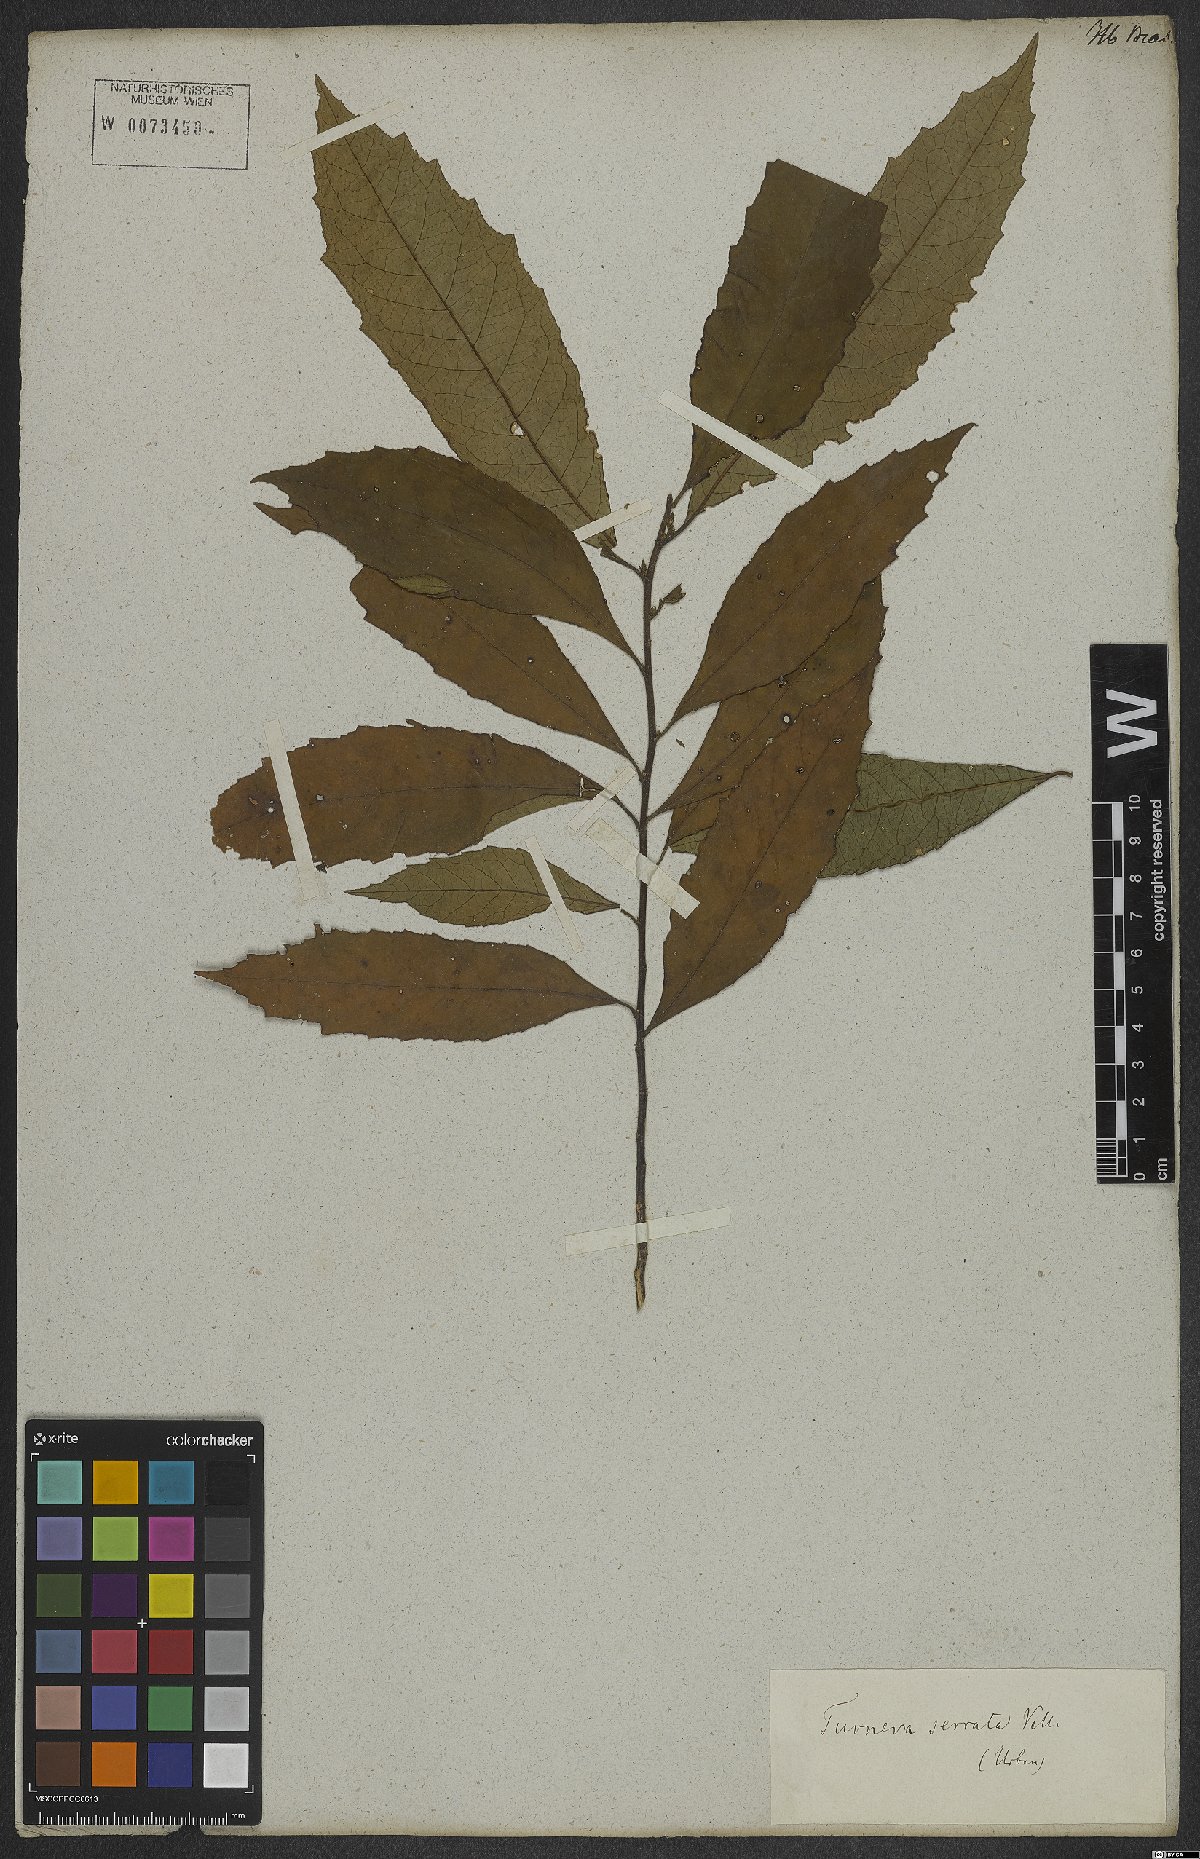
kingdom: Plantae
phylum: Tracheophyta
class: Magnoliopsida
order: Malpighiales
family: Turneraceae
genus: Turnera
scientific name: Turnera serrata
